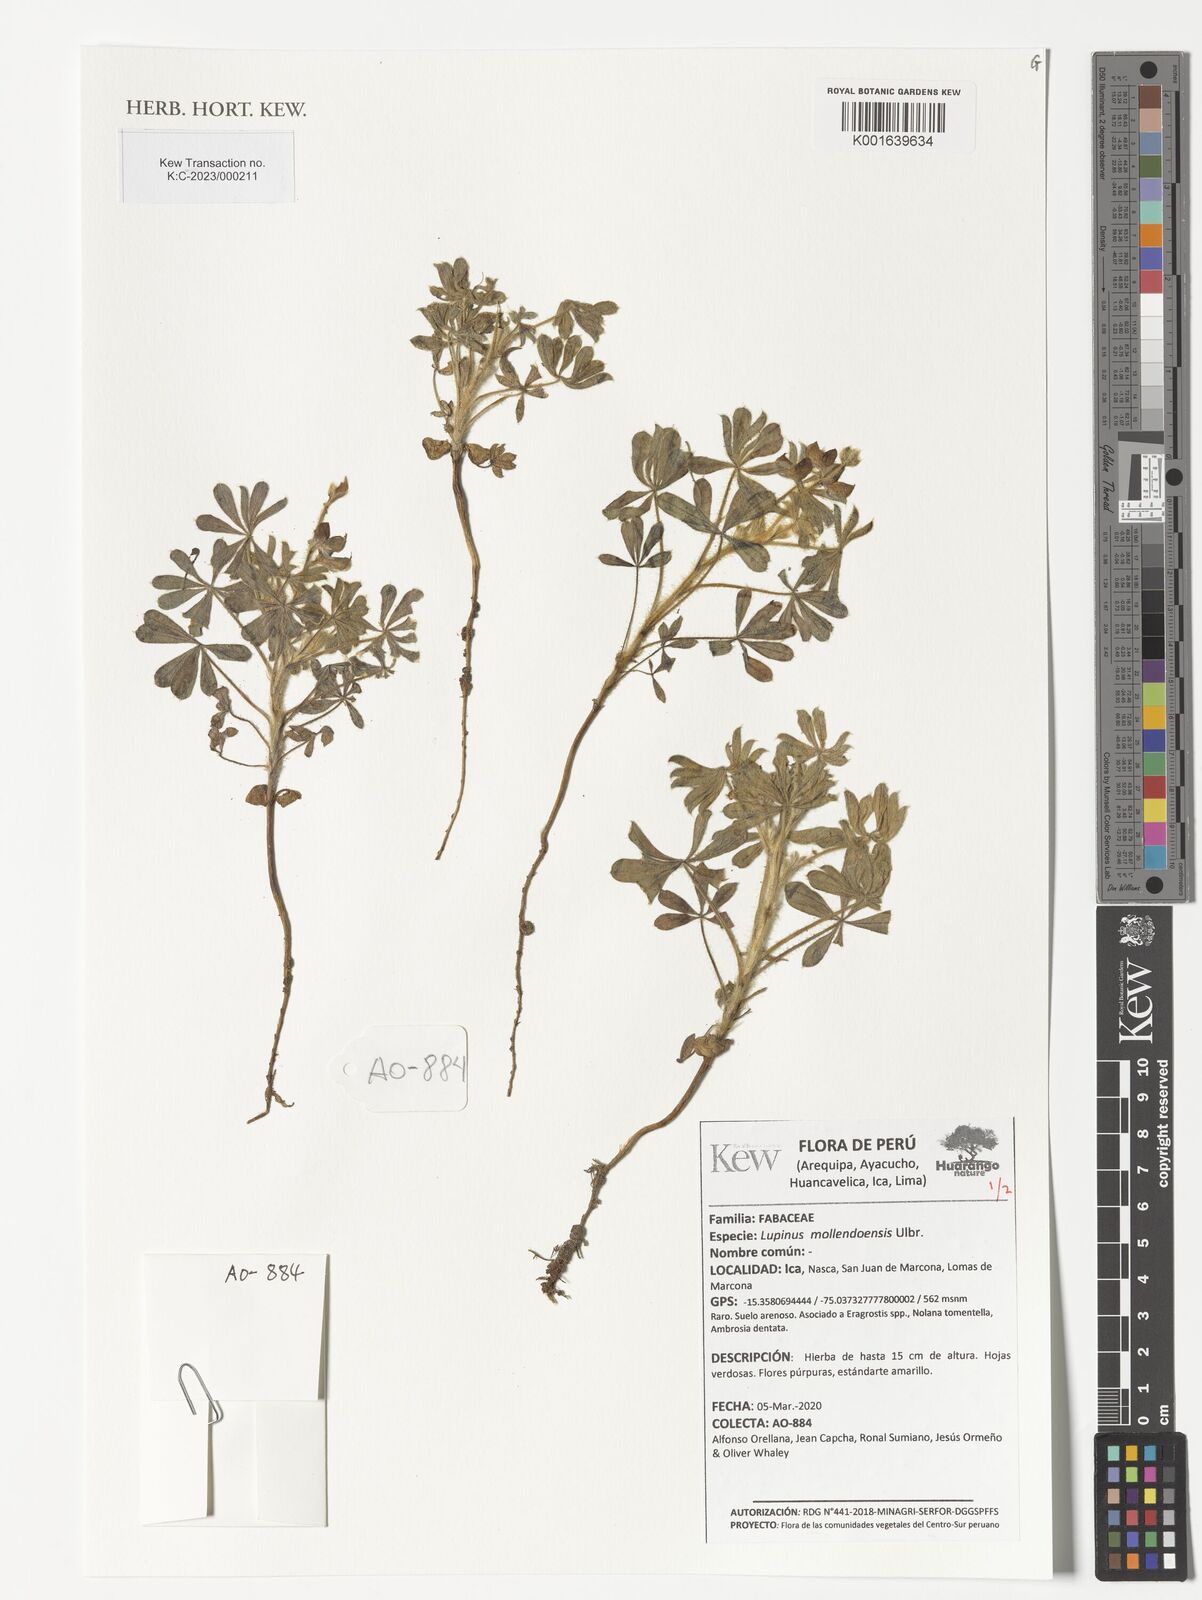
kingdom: Plantae
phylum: Tracheophyta
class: Magnoliopsida
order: Fabales
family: Fabaceae
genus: Lupinus
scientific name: Lupinus mollendoensis
